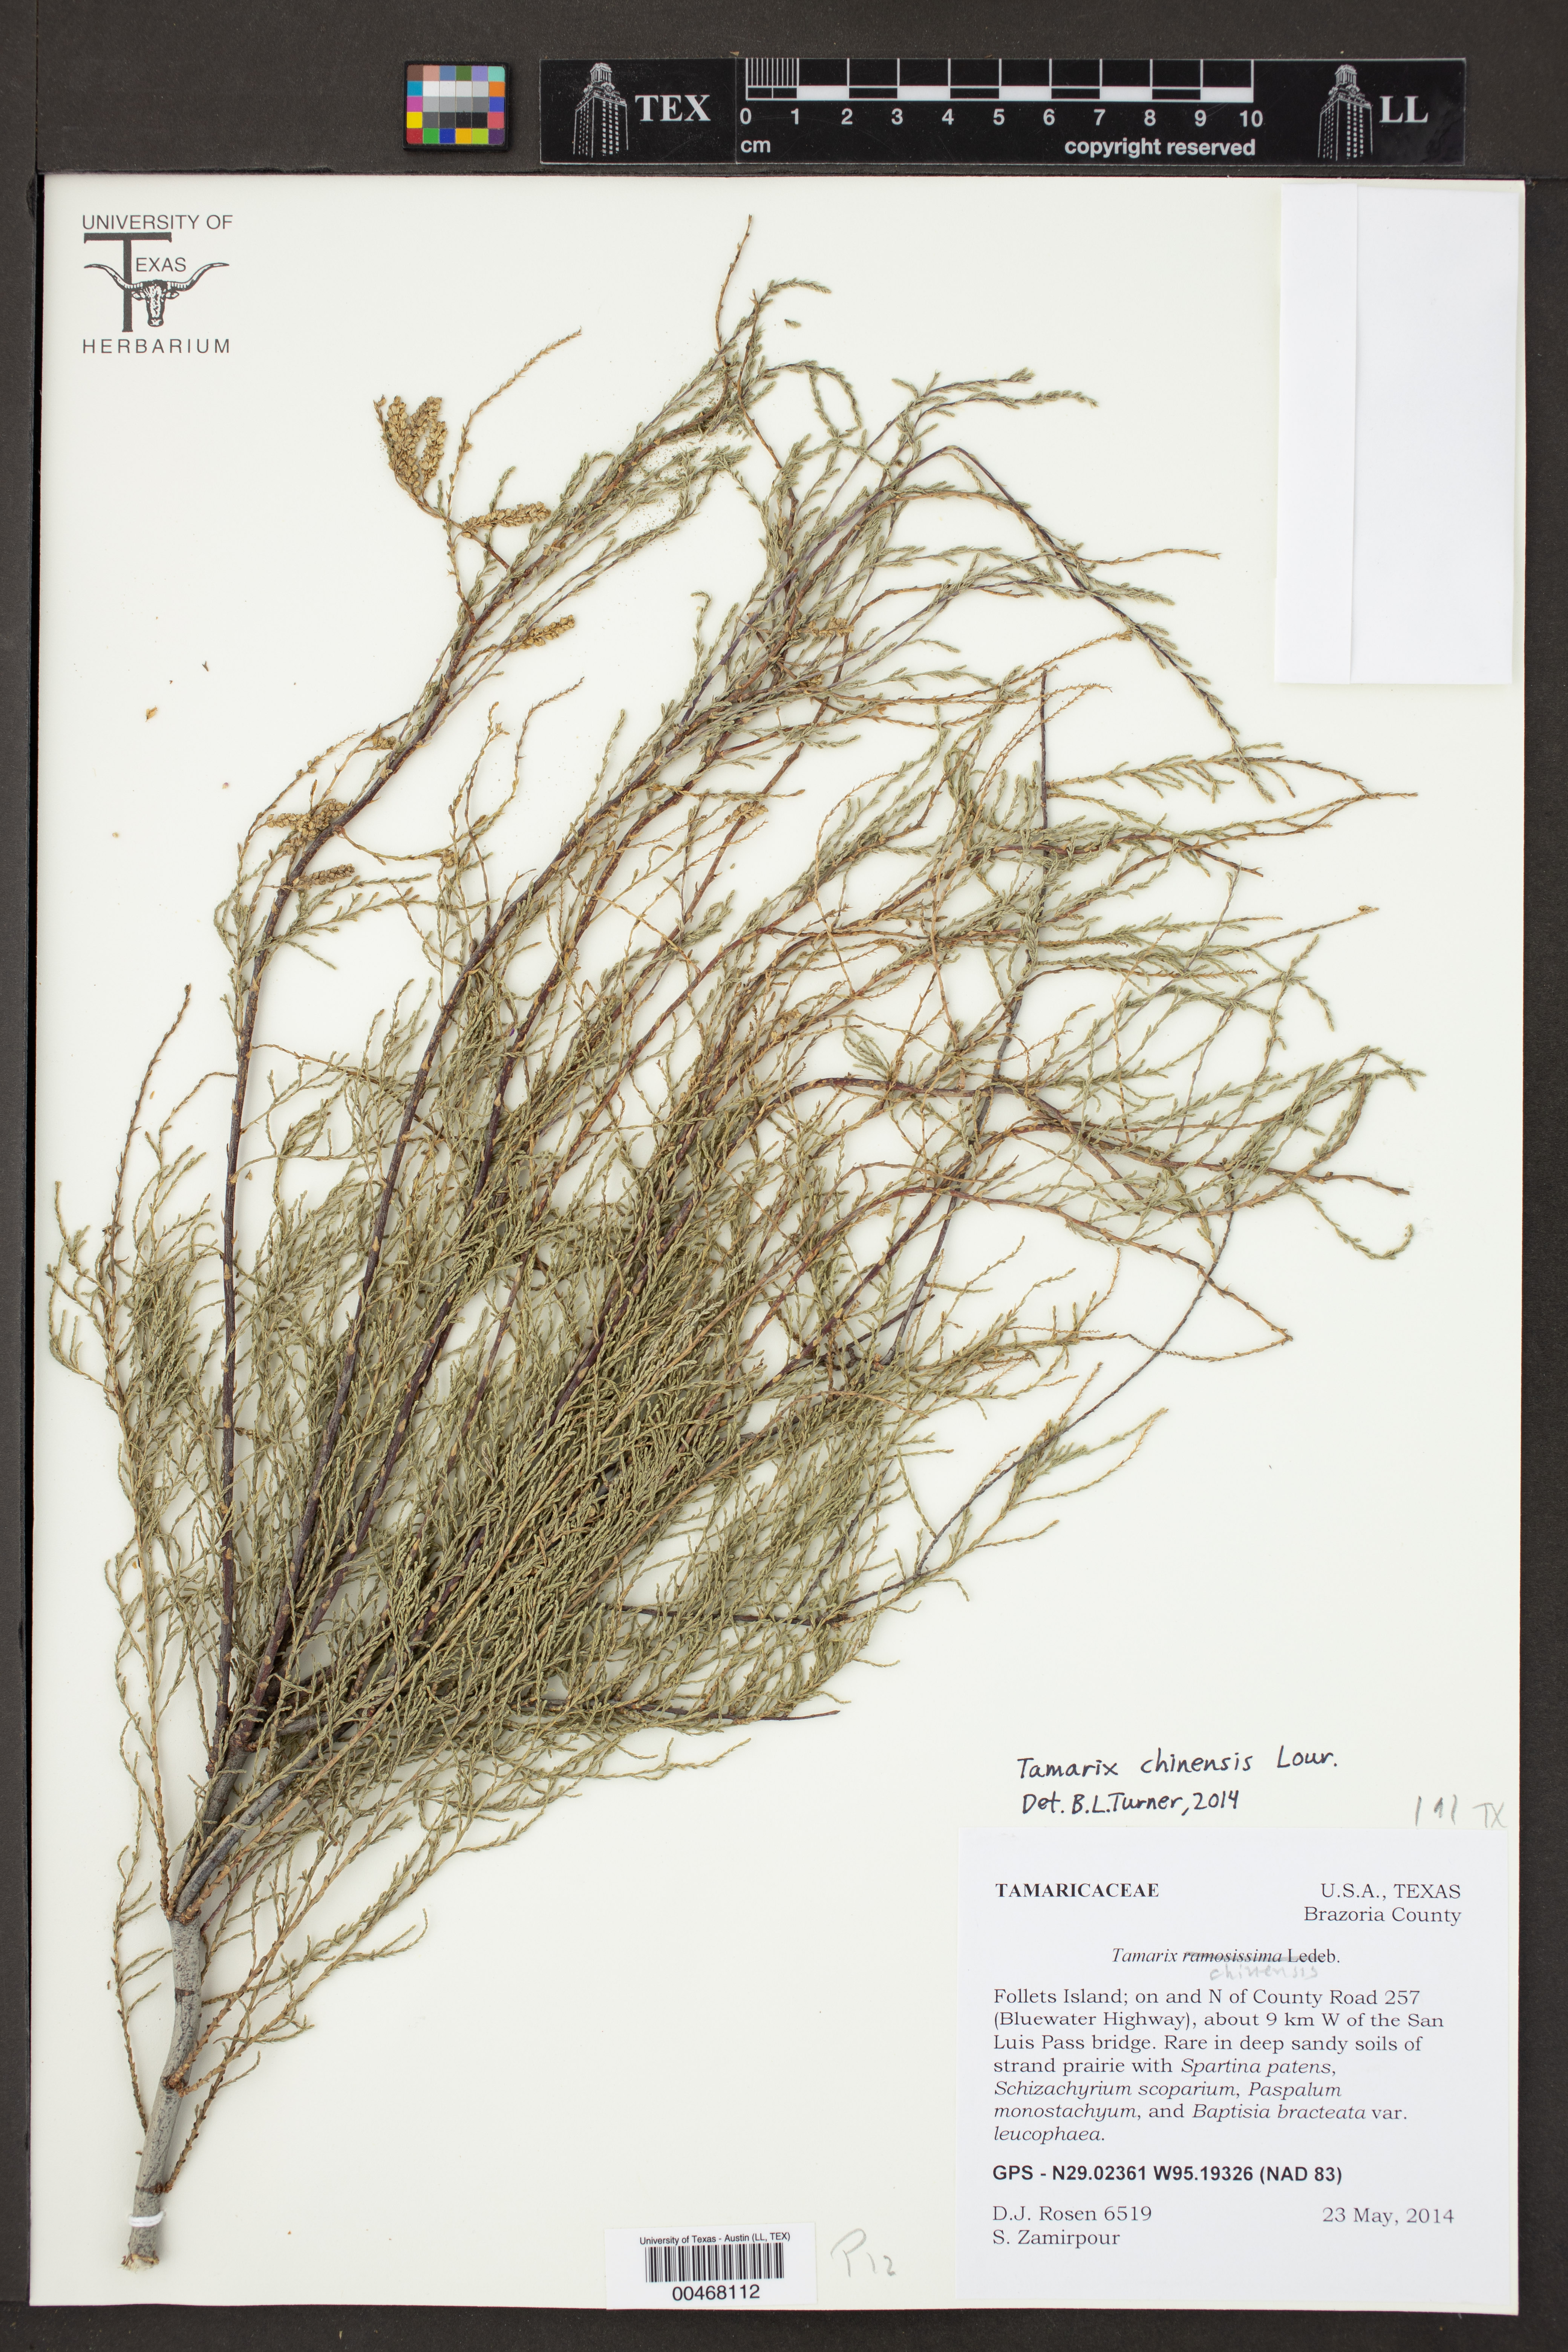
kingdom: Plantae
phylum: Tracheophyta
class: Magnoliopsida
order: Caryophyllales
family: Tamaricaceae
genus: Tamarix
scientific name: Tamarix chinensis
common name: Chinese tamarisk
